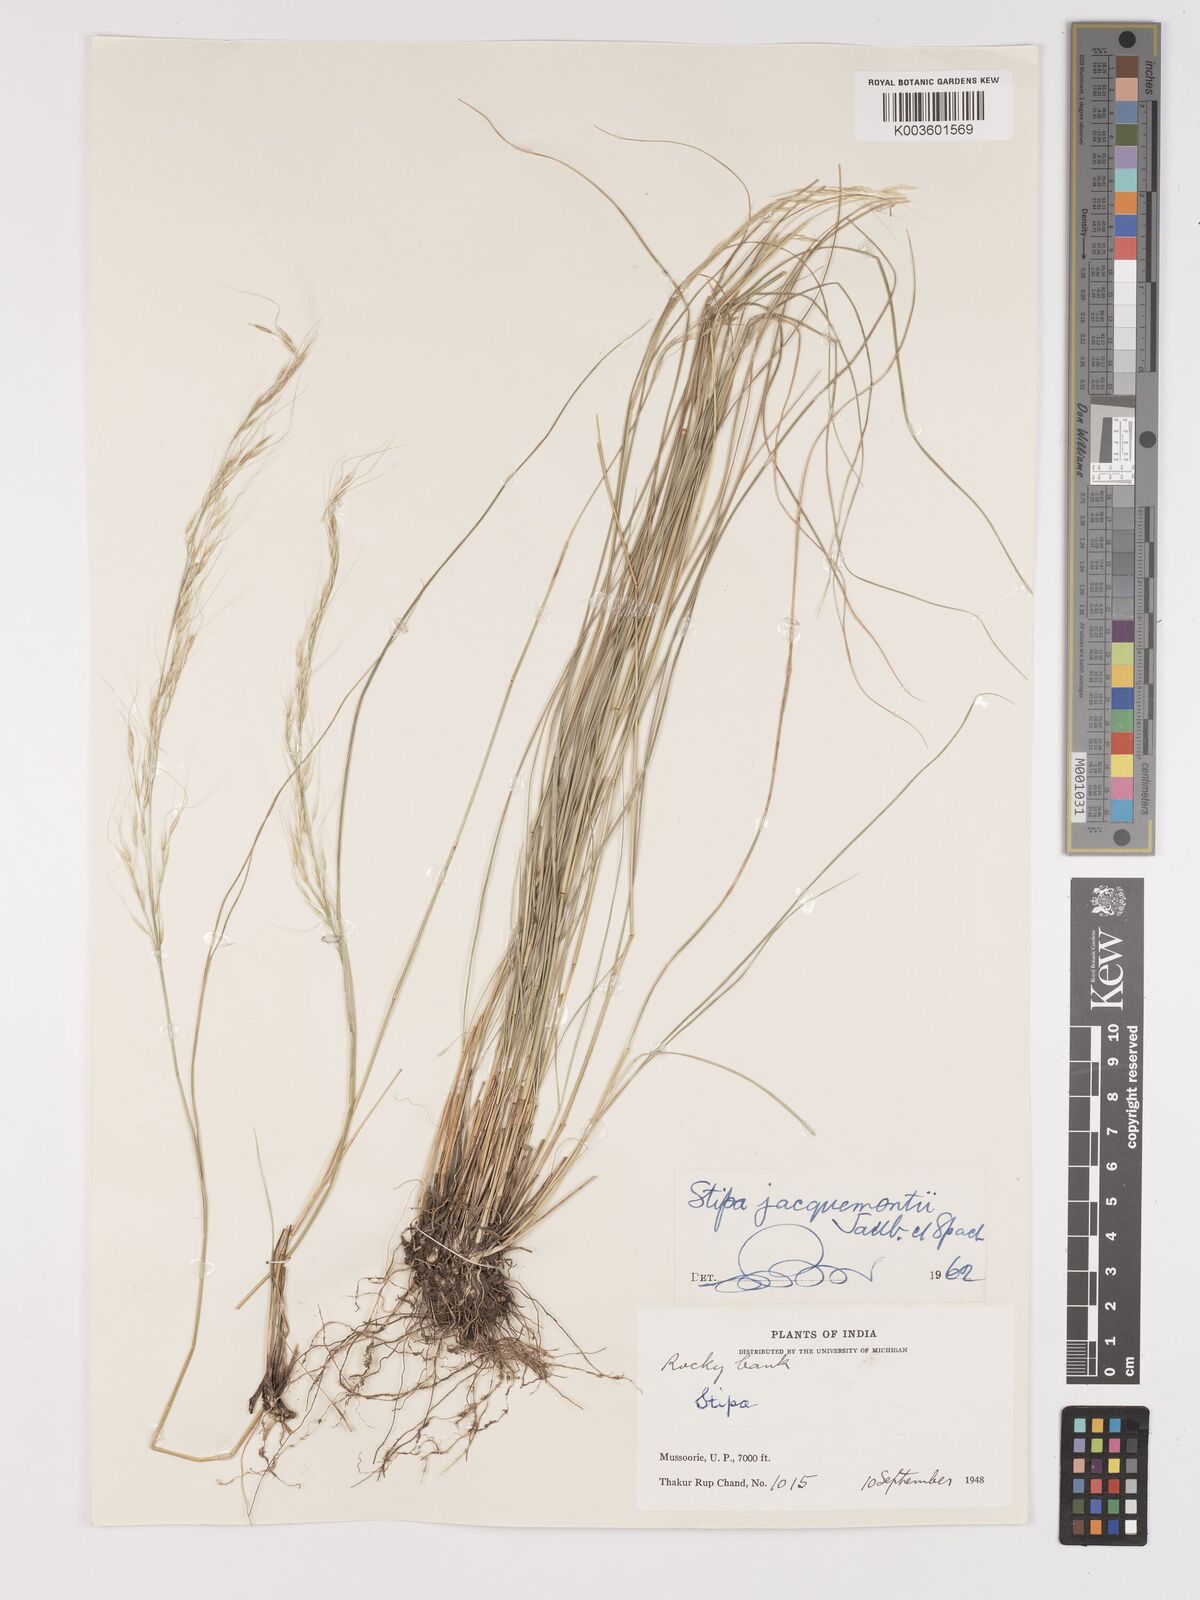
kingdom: Plantae
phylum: Tracheophyta
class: Liliopsida
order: Poales
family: Poaceae
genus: Achnatherum
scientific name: Achnatherum jacquemontii
